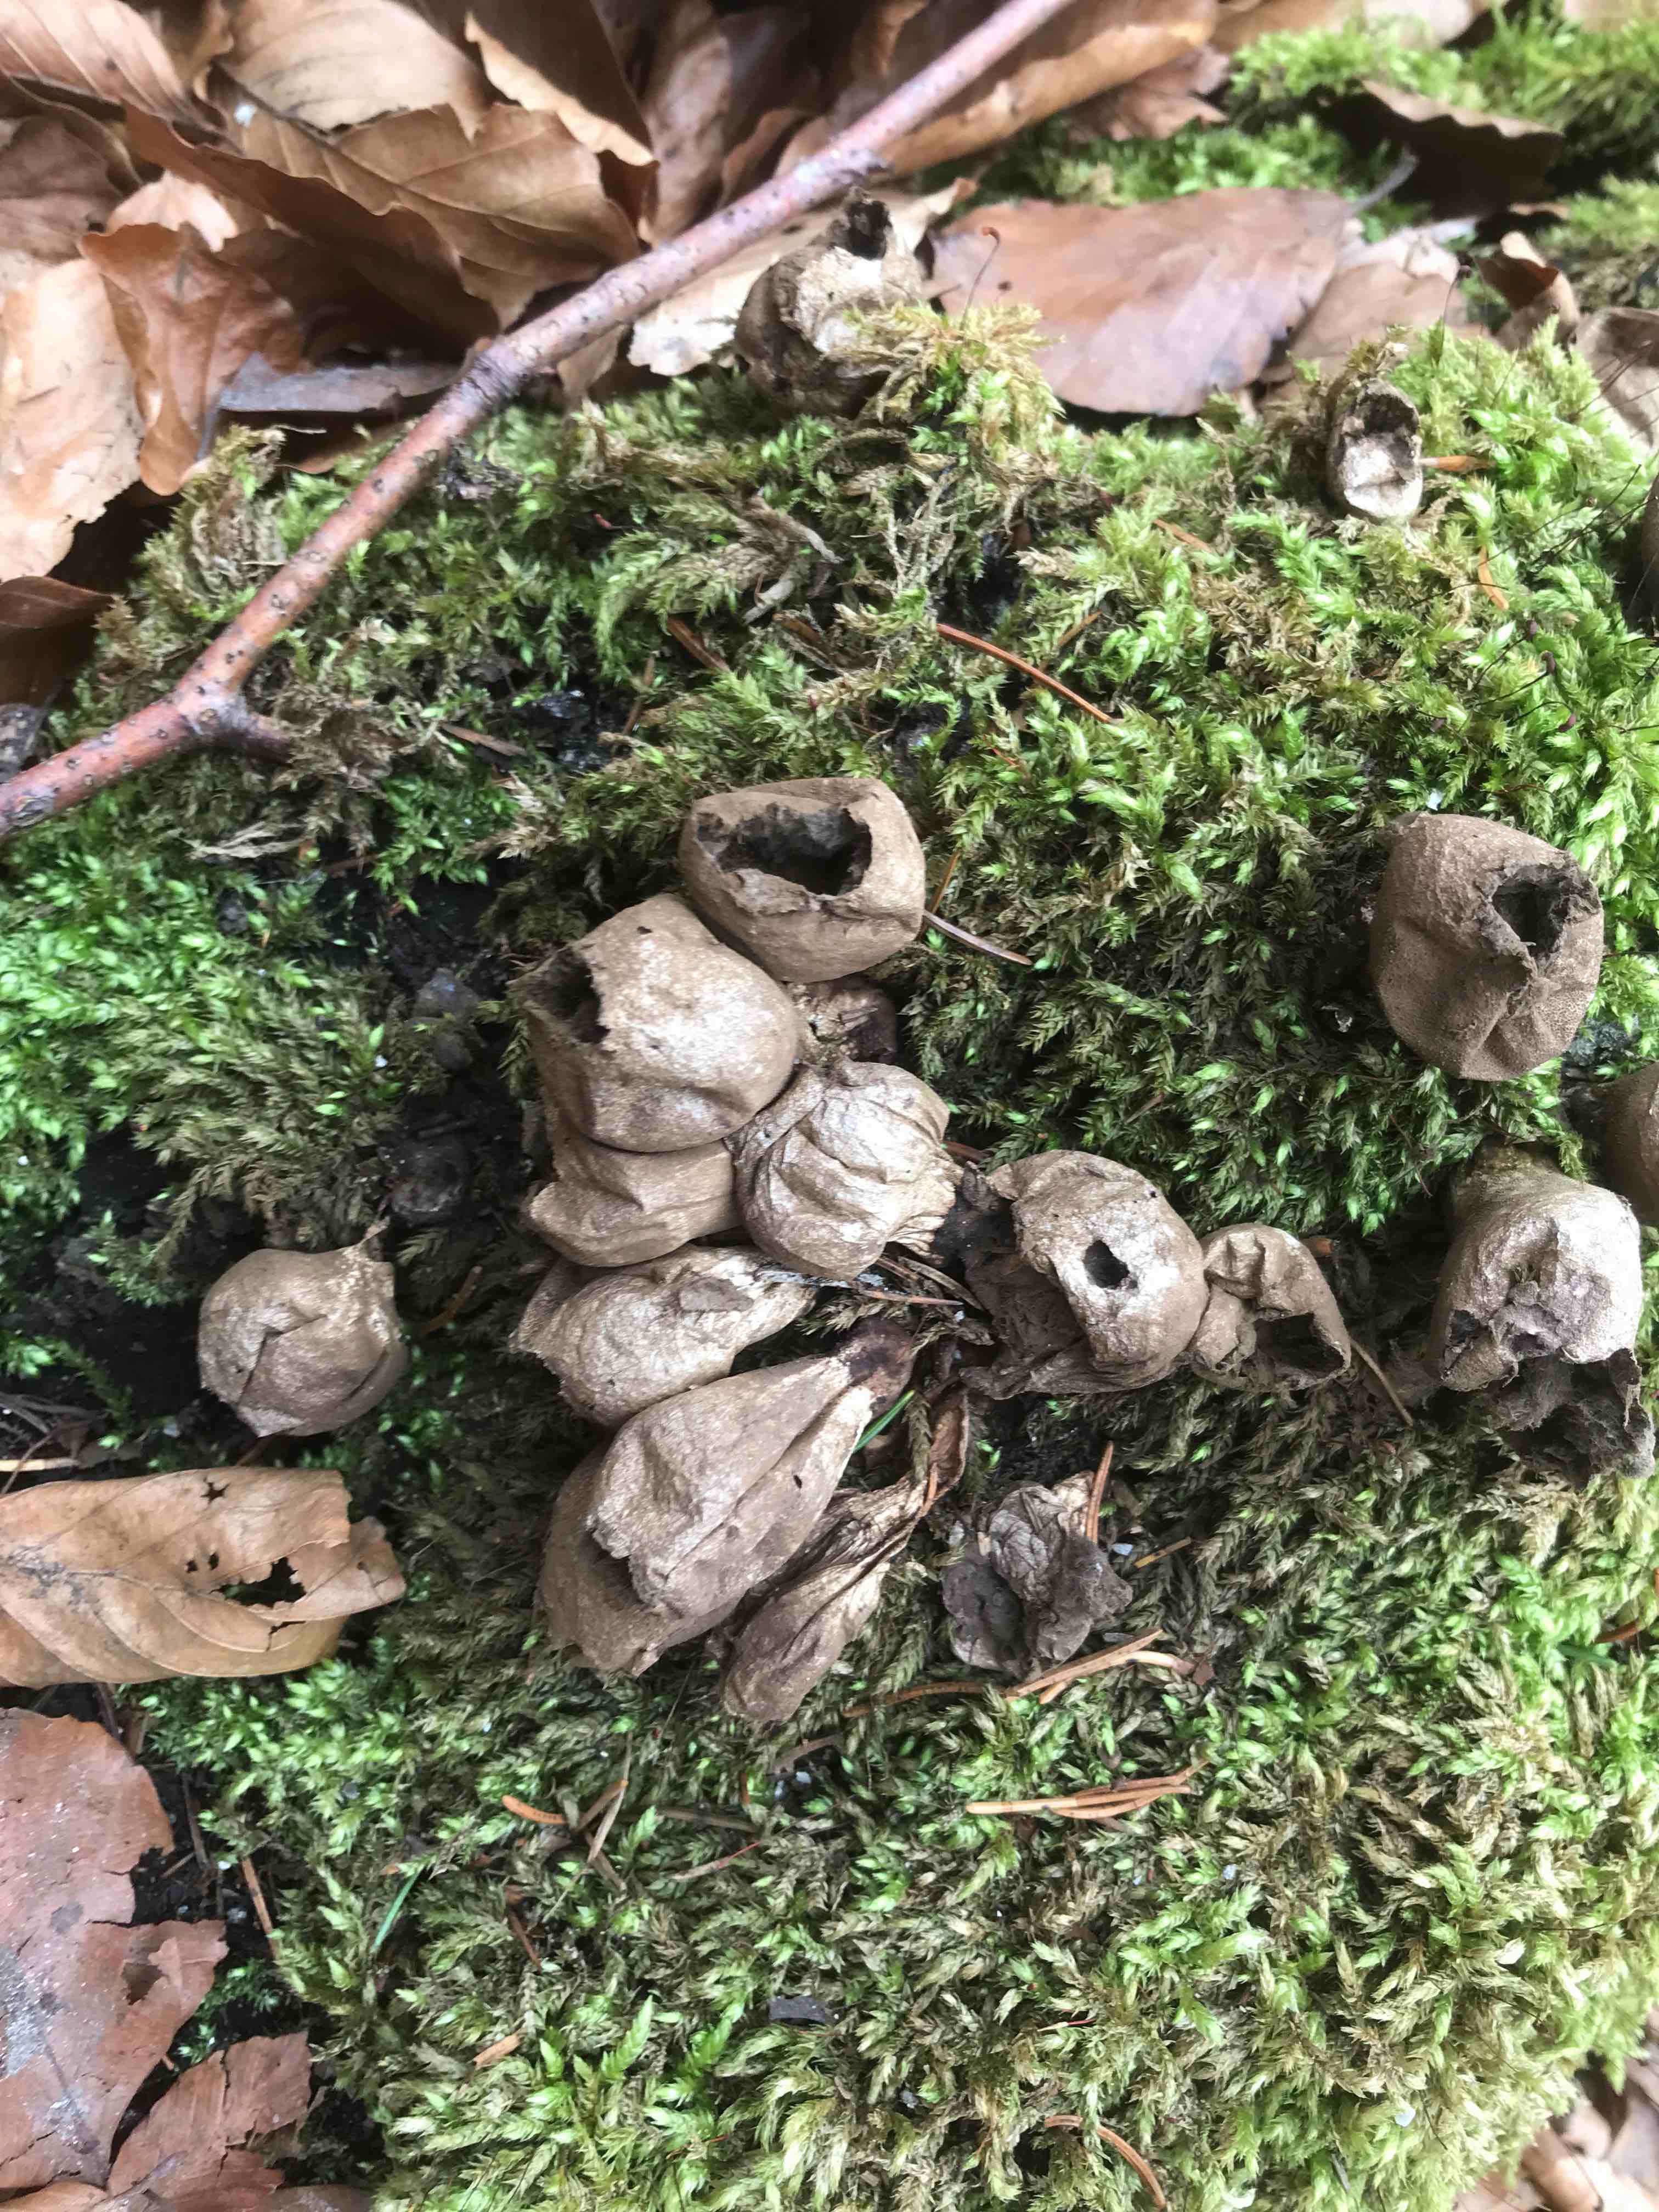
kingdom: Fungi
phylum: Basidiomycota
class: Agaricomycetes
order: Agaricales
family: Lycoperdaceae
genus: Apioperdon
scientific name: Apioperdon pyriforme
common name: pære-støvbold
